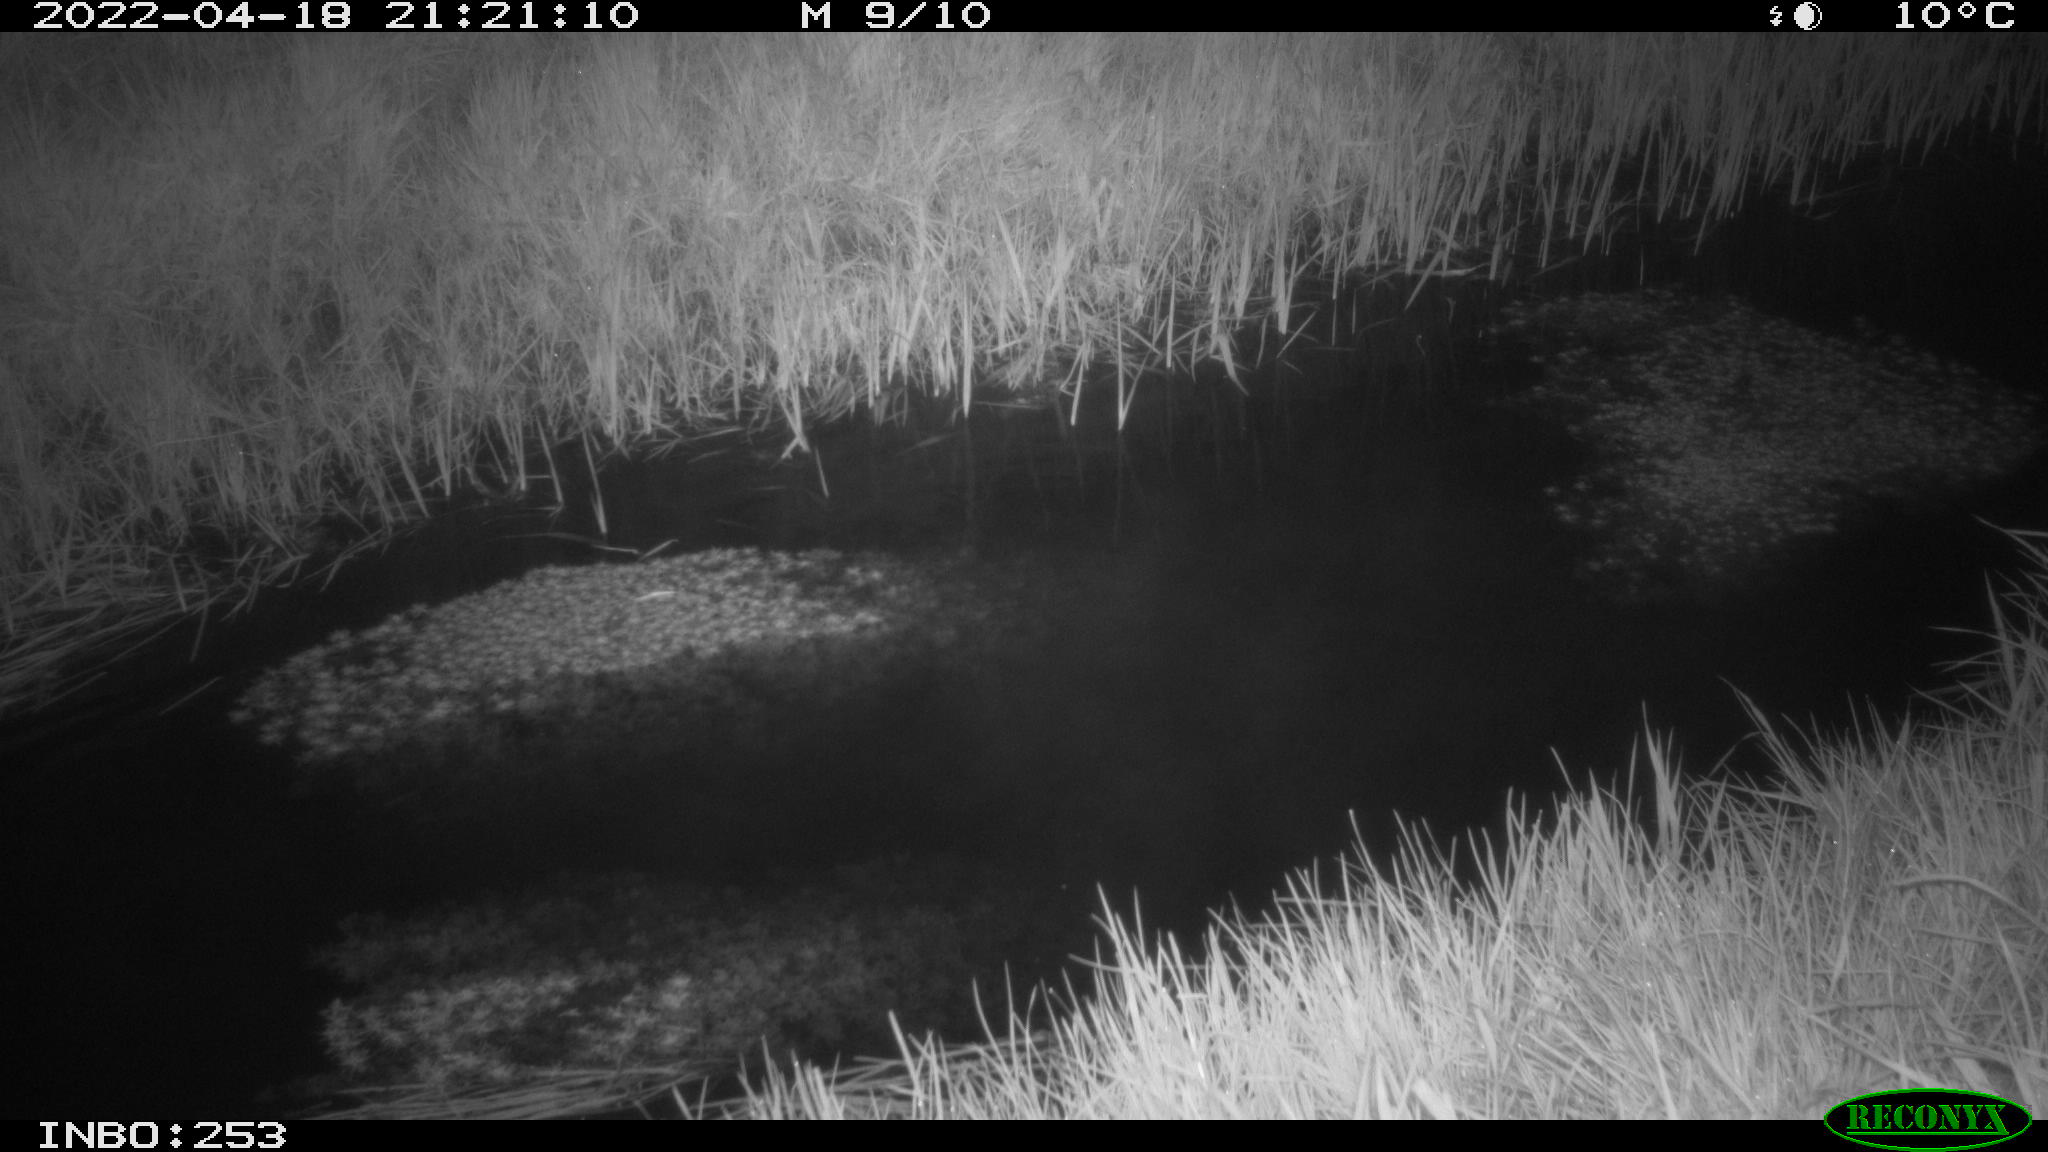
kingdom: Animalia
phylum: Chordata
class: Aves
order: Anseriformes
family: Anatidae
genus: Anas
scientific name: Anas platyrhynchos
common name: Mallard
